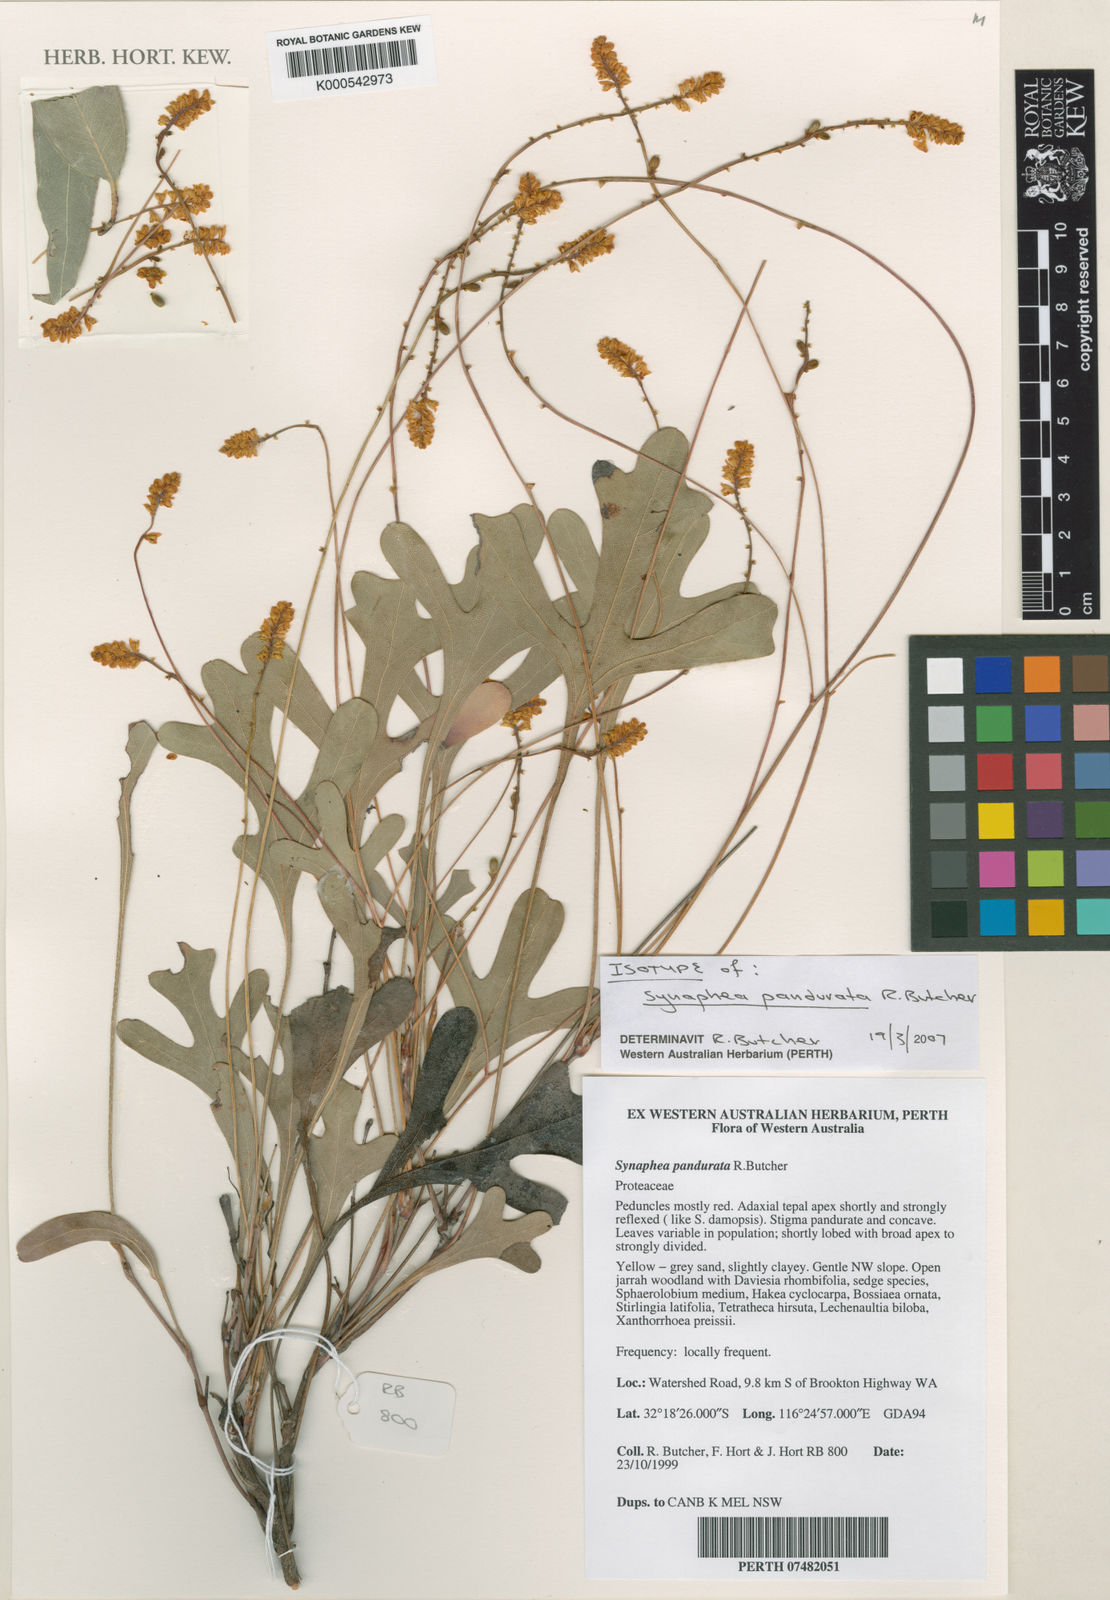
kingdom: Plantae
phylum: Tracheophyta
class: Magnoliopsida
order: Proteales
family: Proteaceae
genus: Synaphea
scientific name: Synaphea pandurata
